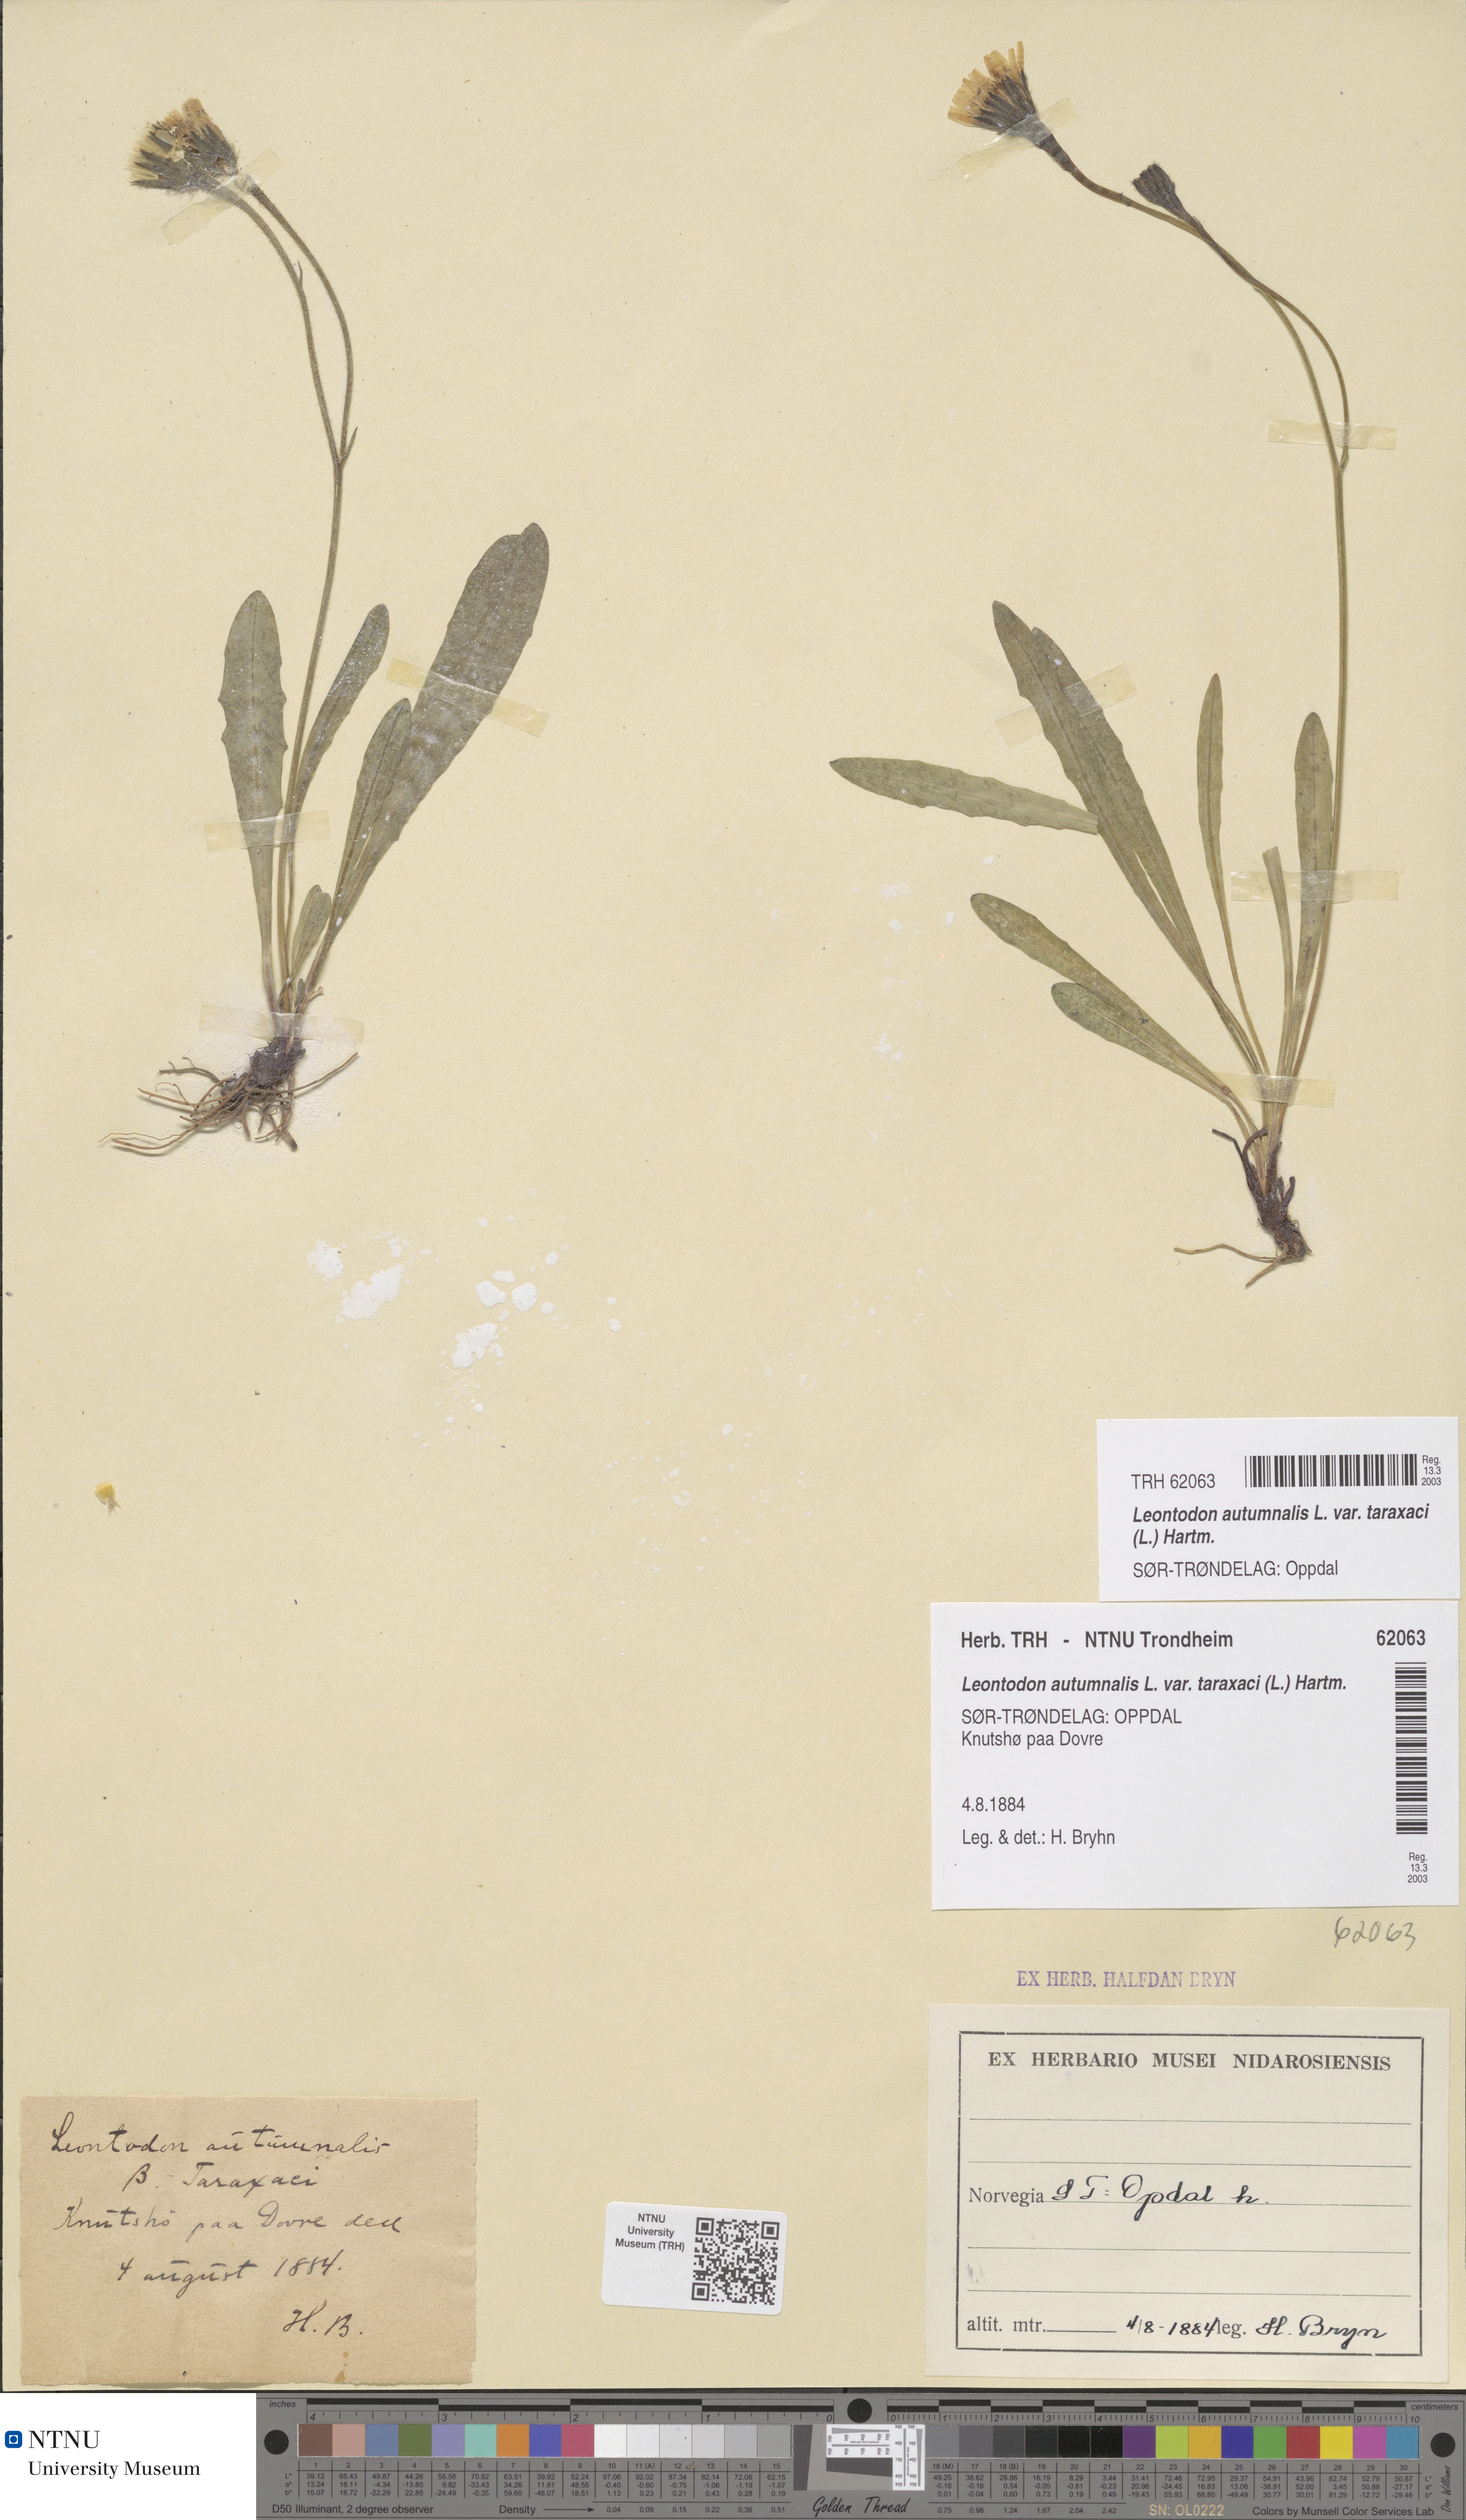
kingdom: Plantae
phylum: Tracheophyta
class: Magnoliopsida
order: Asterales
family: Asteraceae
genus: Scorzoneroides
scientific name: Scorzoneroides autumnalis
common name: Autumn hawkbit
